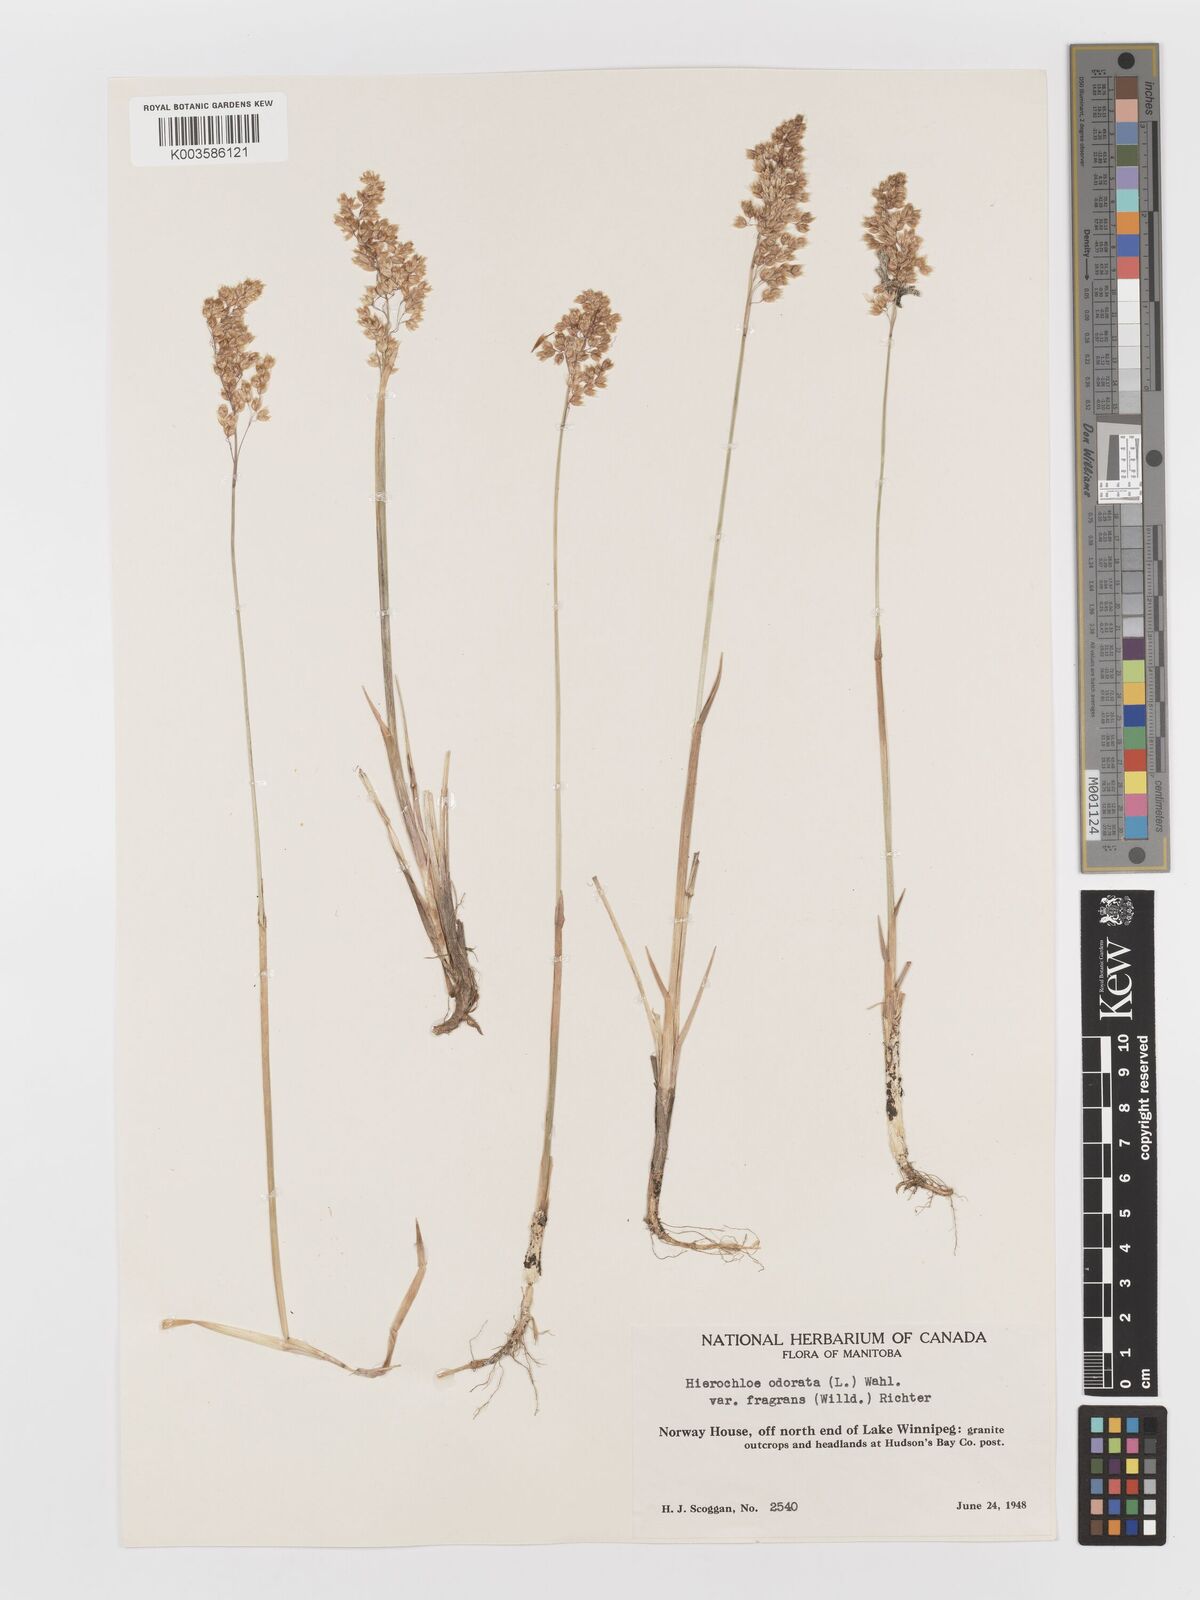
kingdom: Plantae
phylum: Tracheophyta
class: Liliopsida
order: Poales
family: Poaceae
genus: Anthoxanthum
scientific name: Anthoxanthum nitens
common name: Holy grass
